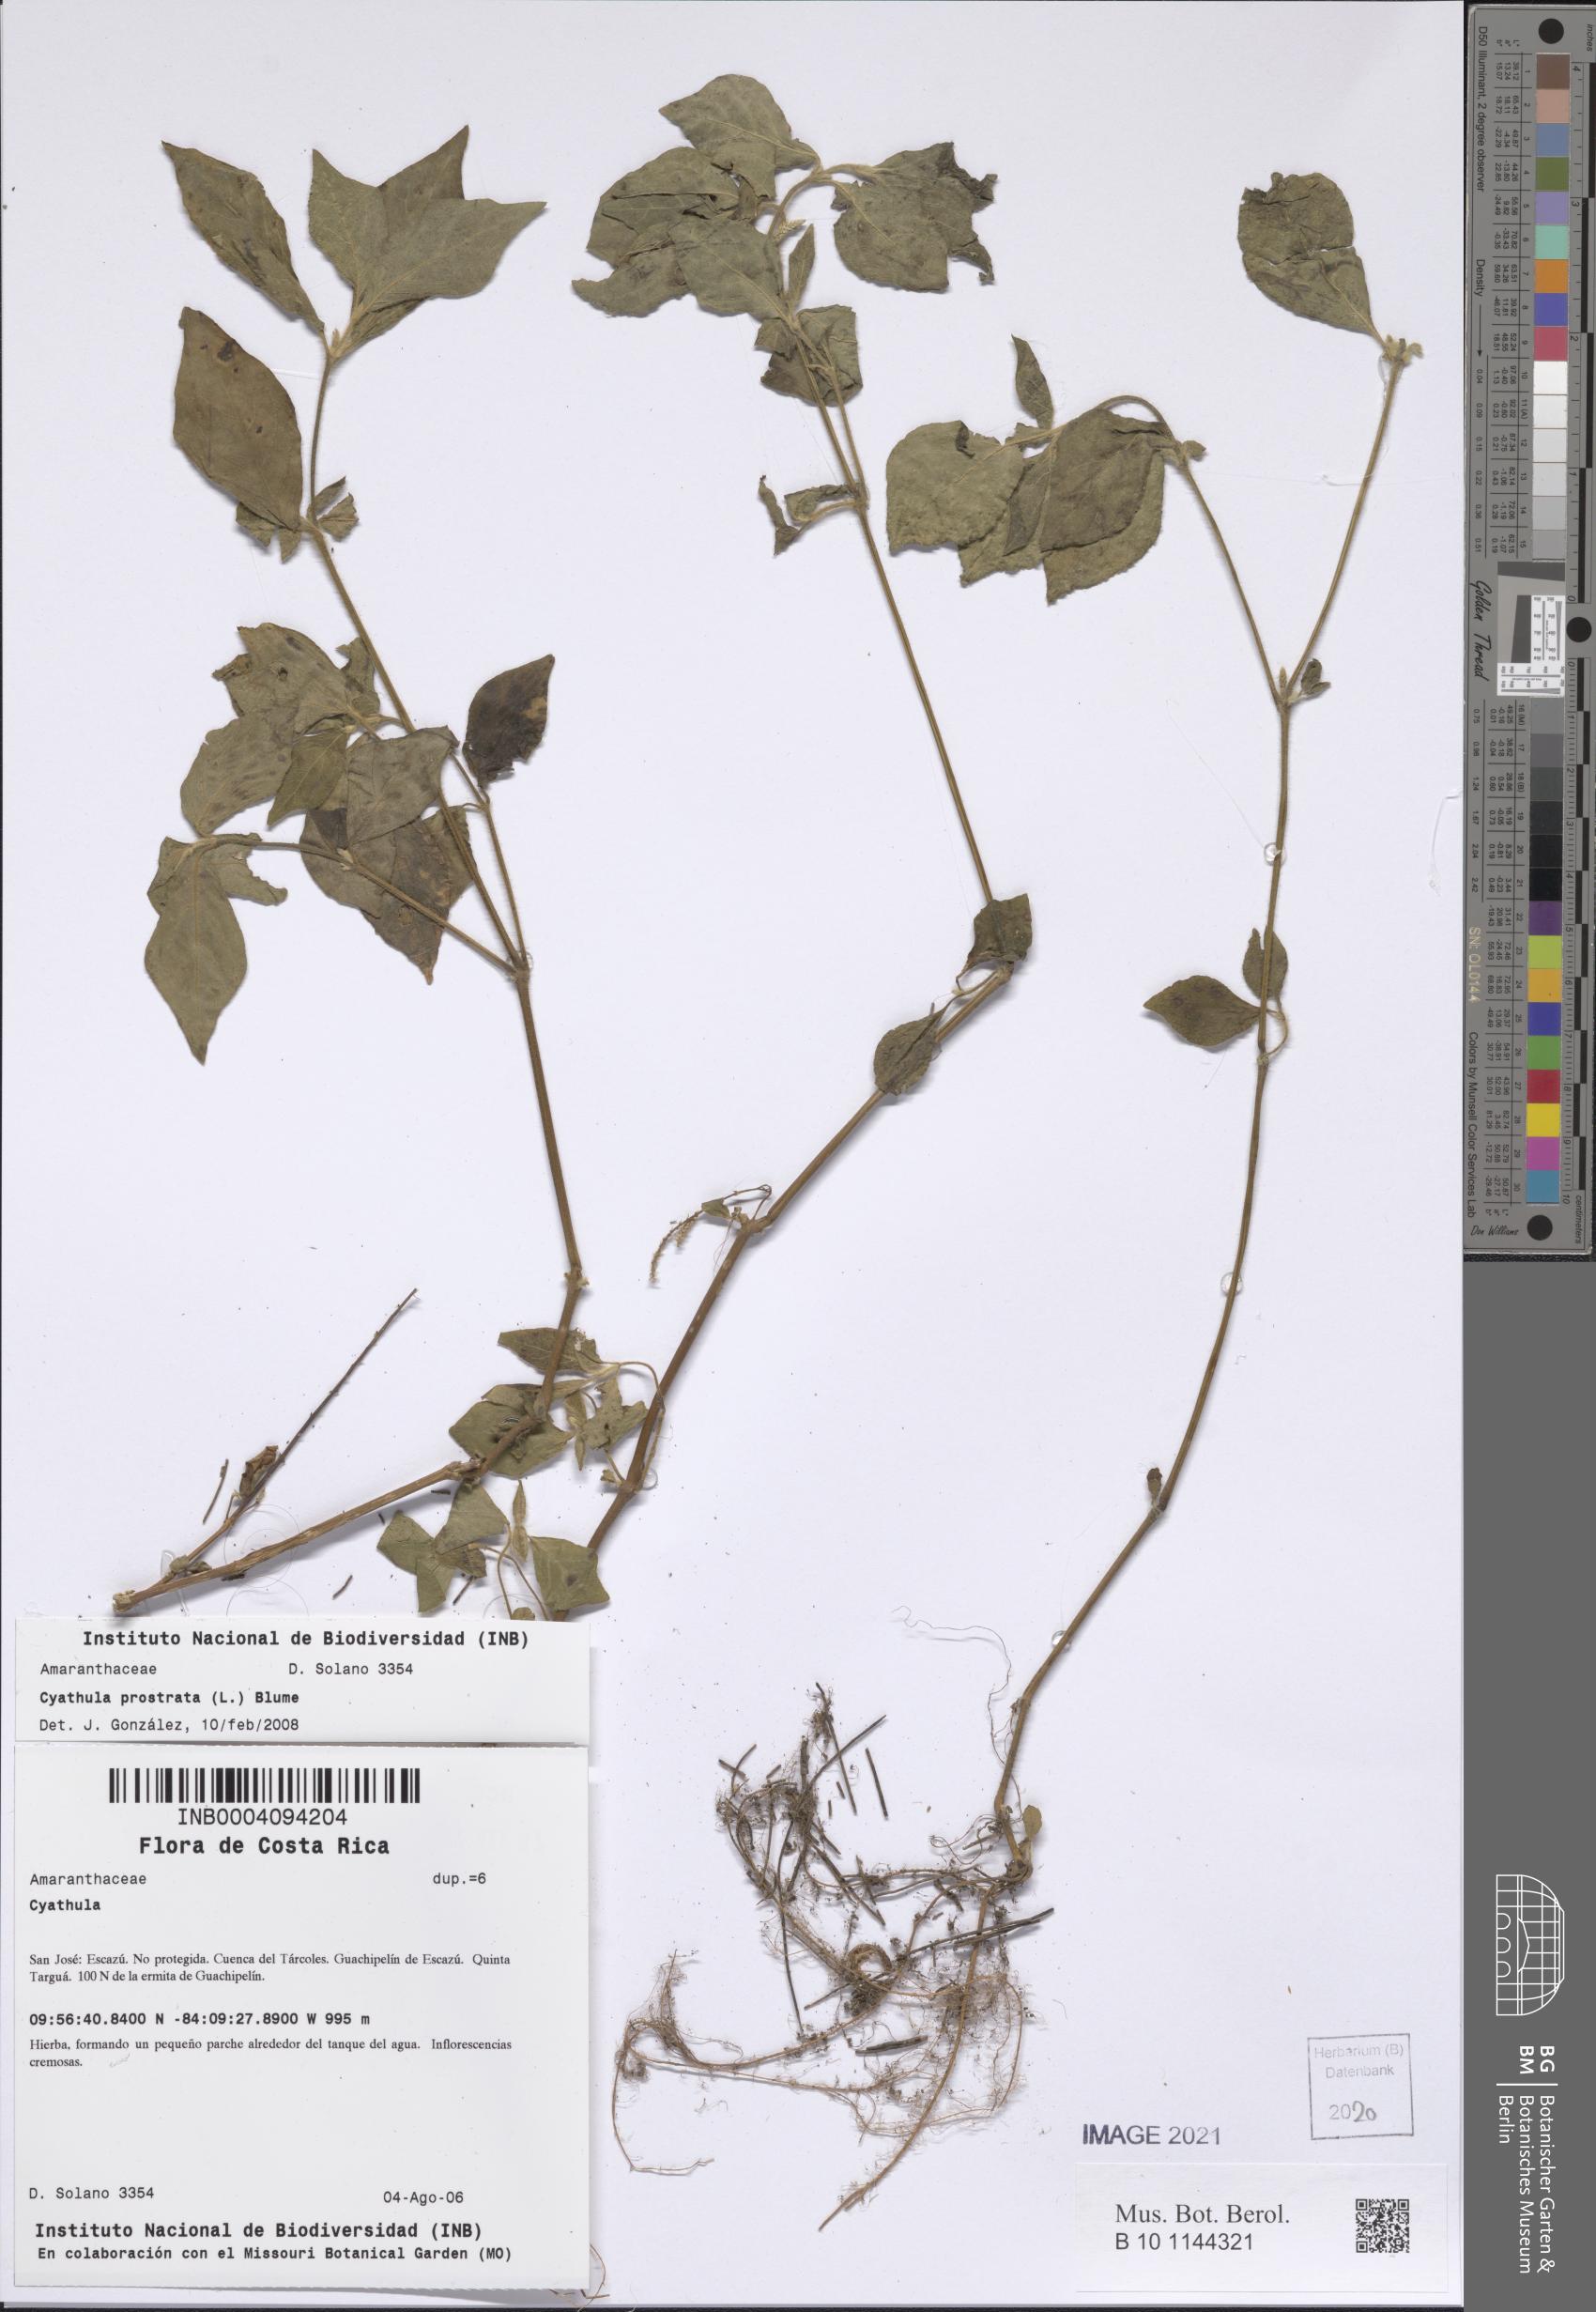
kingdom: Plantae
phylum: Tracheophyta
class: Magnoliopsida
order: Caryophyllales
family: Amaranthaceae
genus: Cyathula
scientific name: Cyathula prostrata
